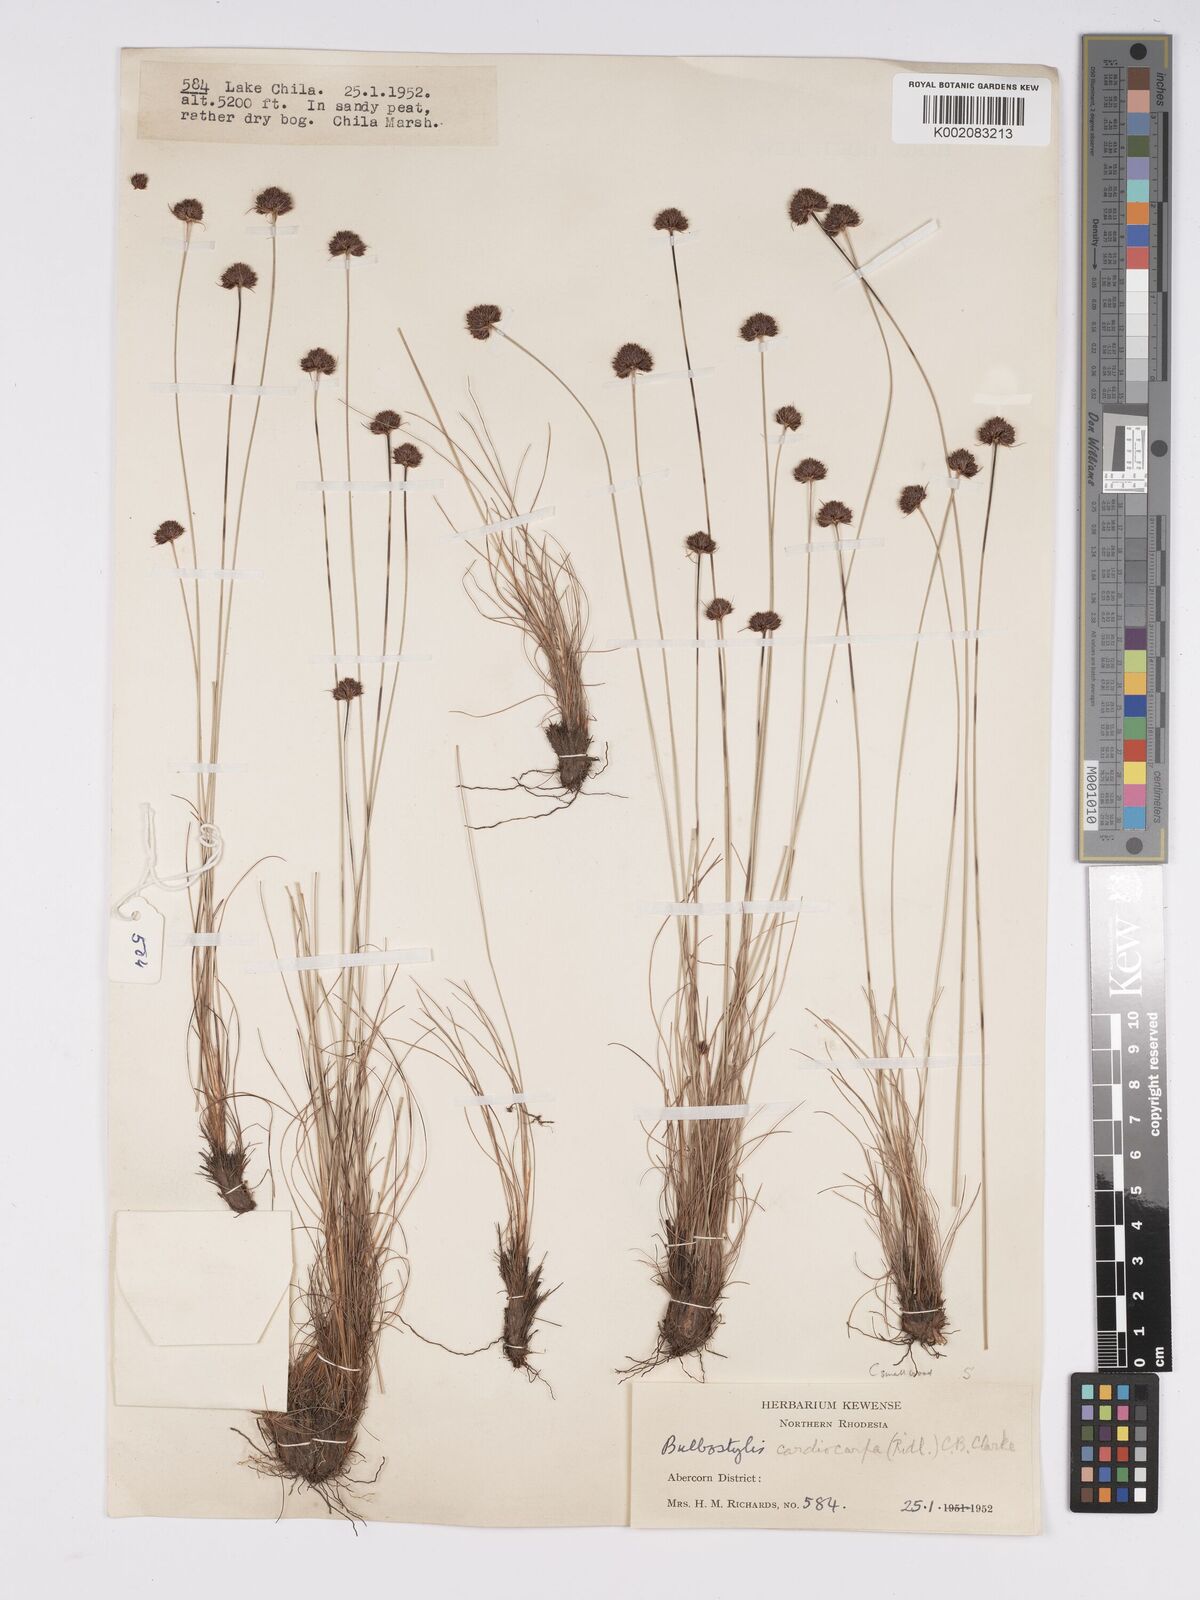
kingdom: Plantae
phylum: Tracheophyta
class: Liliopsida
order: Poales
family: Cyperaceae
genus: Bulbostylis
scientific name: Bulbostylis filamentosa
